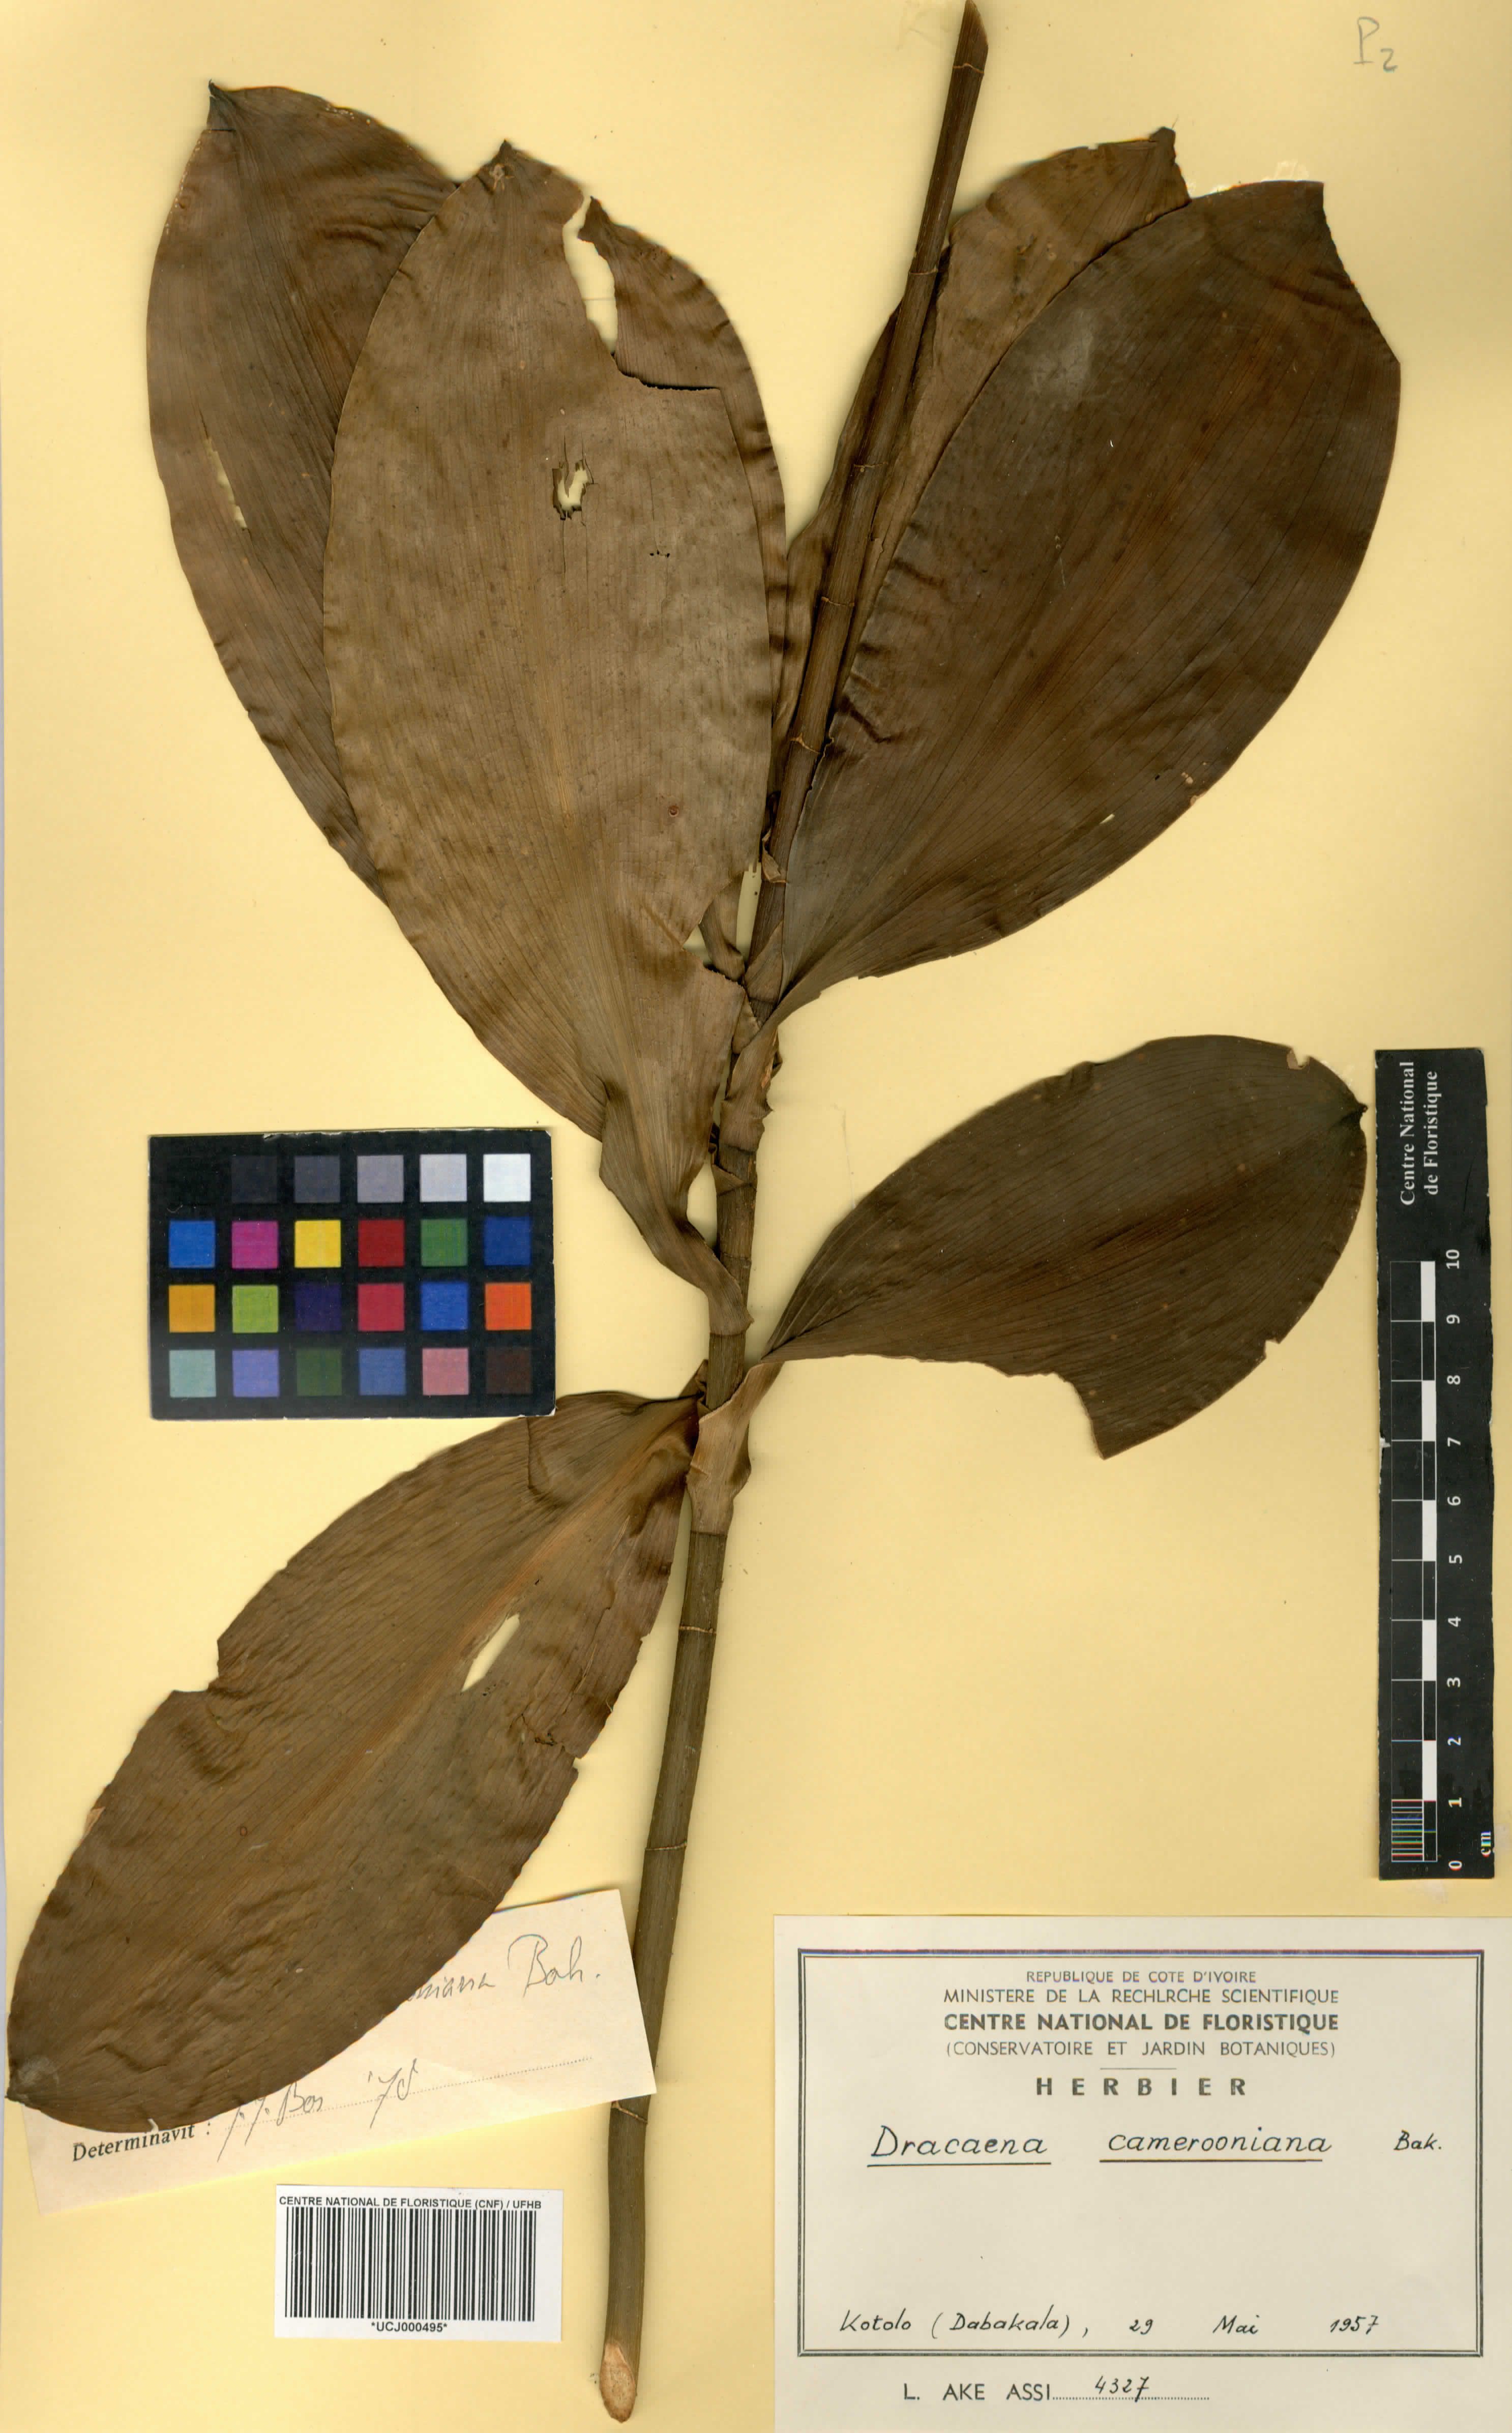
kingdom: Plantae
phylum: Tracheophyta
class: Liliopsida
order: Asparagales
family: Asparagaceae
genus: Dracaena
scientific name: Dracaena camerooniana
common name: Dragon tree
